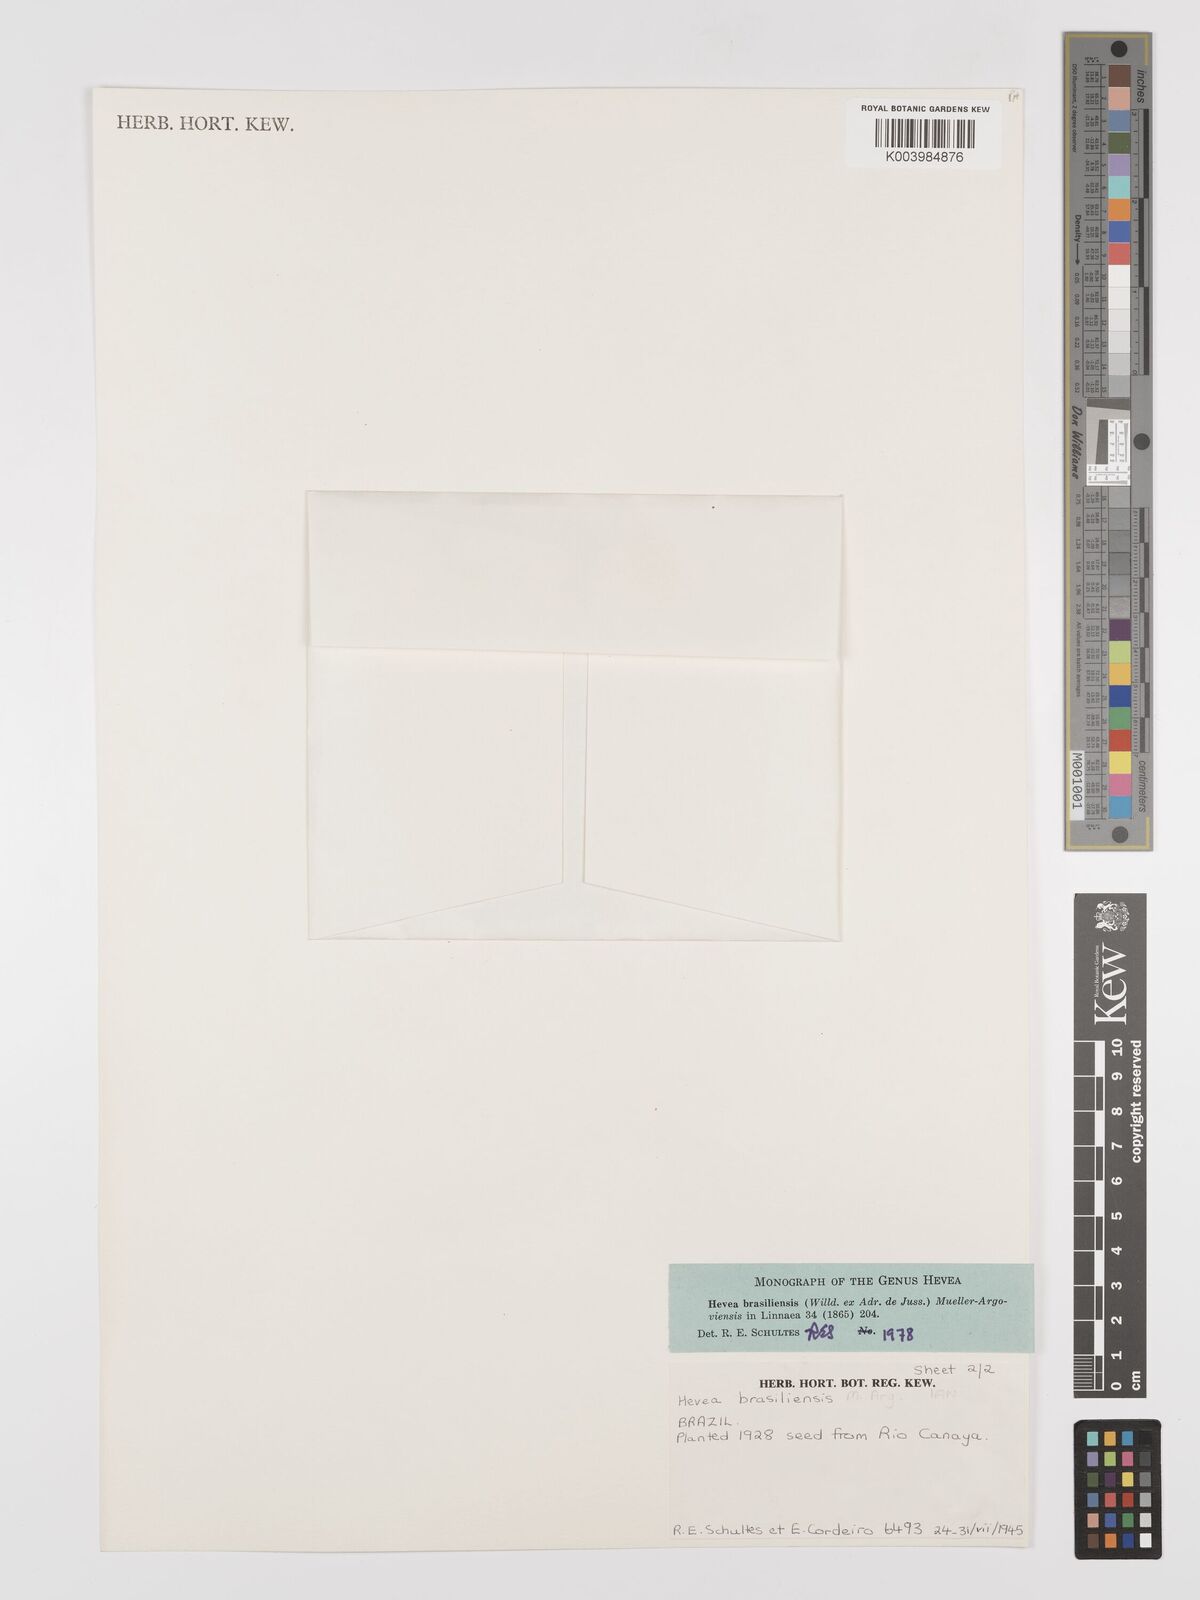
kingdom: Plantae
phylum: Tracheophyta
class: Magnoliopsida
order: Malpighiales
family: Euphorbiaceae
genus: Hevea
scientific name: Hevea brasiliensis
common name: Natural rubber
